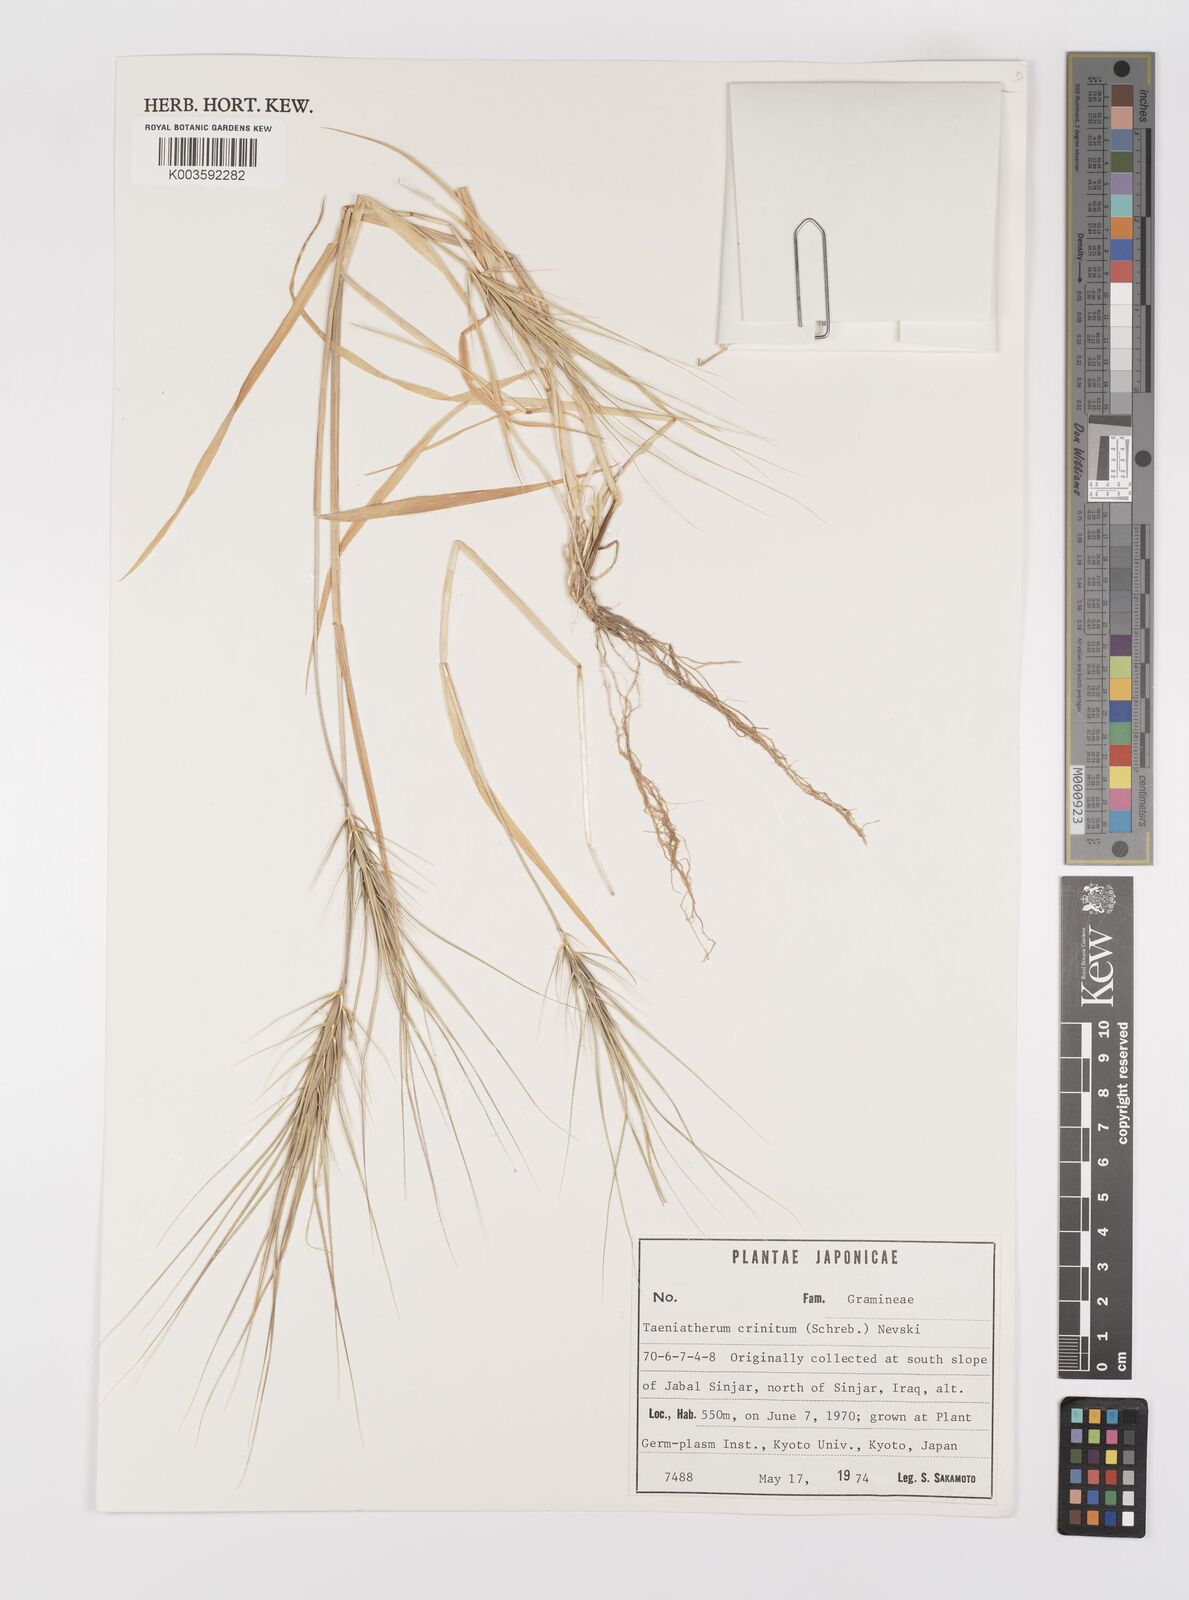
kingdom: Plantae
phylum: Tracheophyta
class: Liliopsida
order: Poales
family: Poaceae
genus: Taeniatherum
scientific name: Taeniatherum caput-medusae
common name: Medusahead
